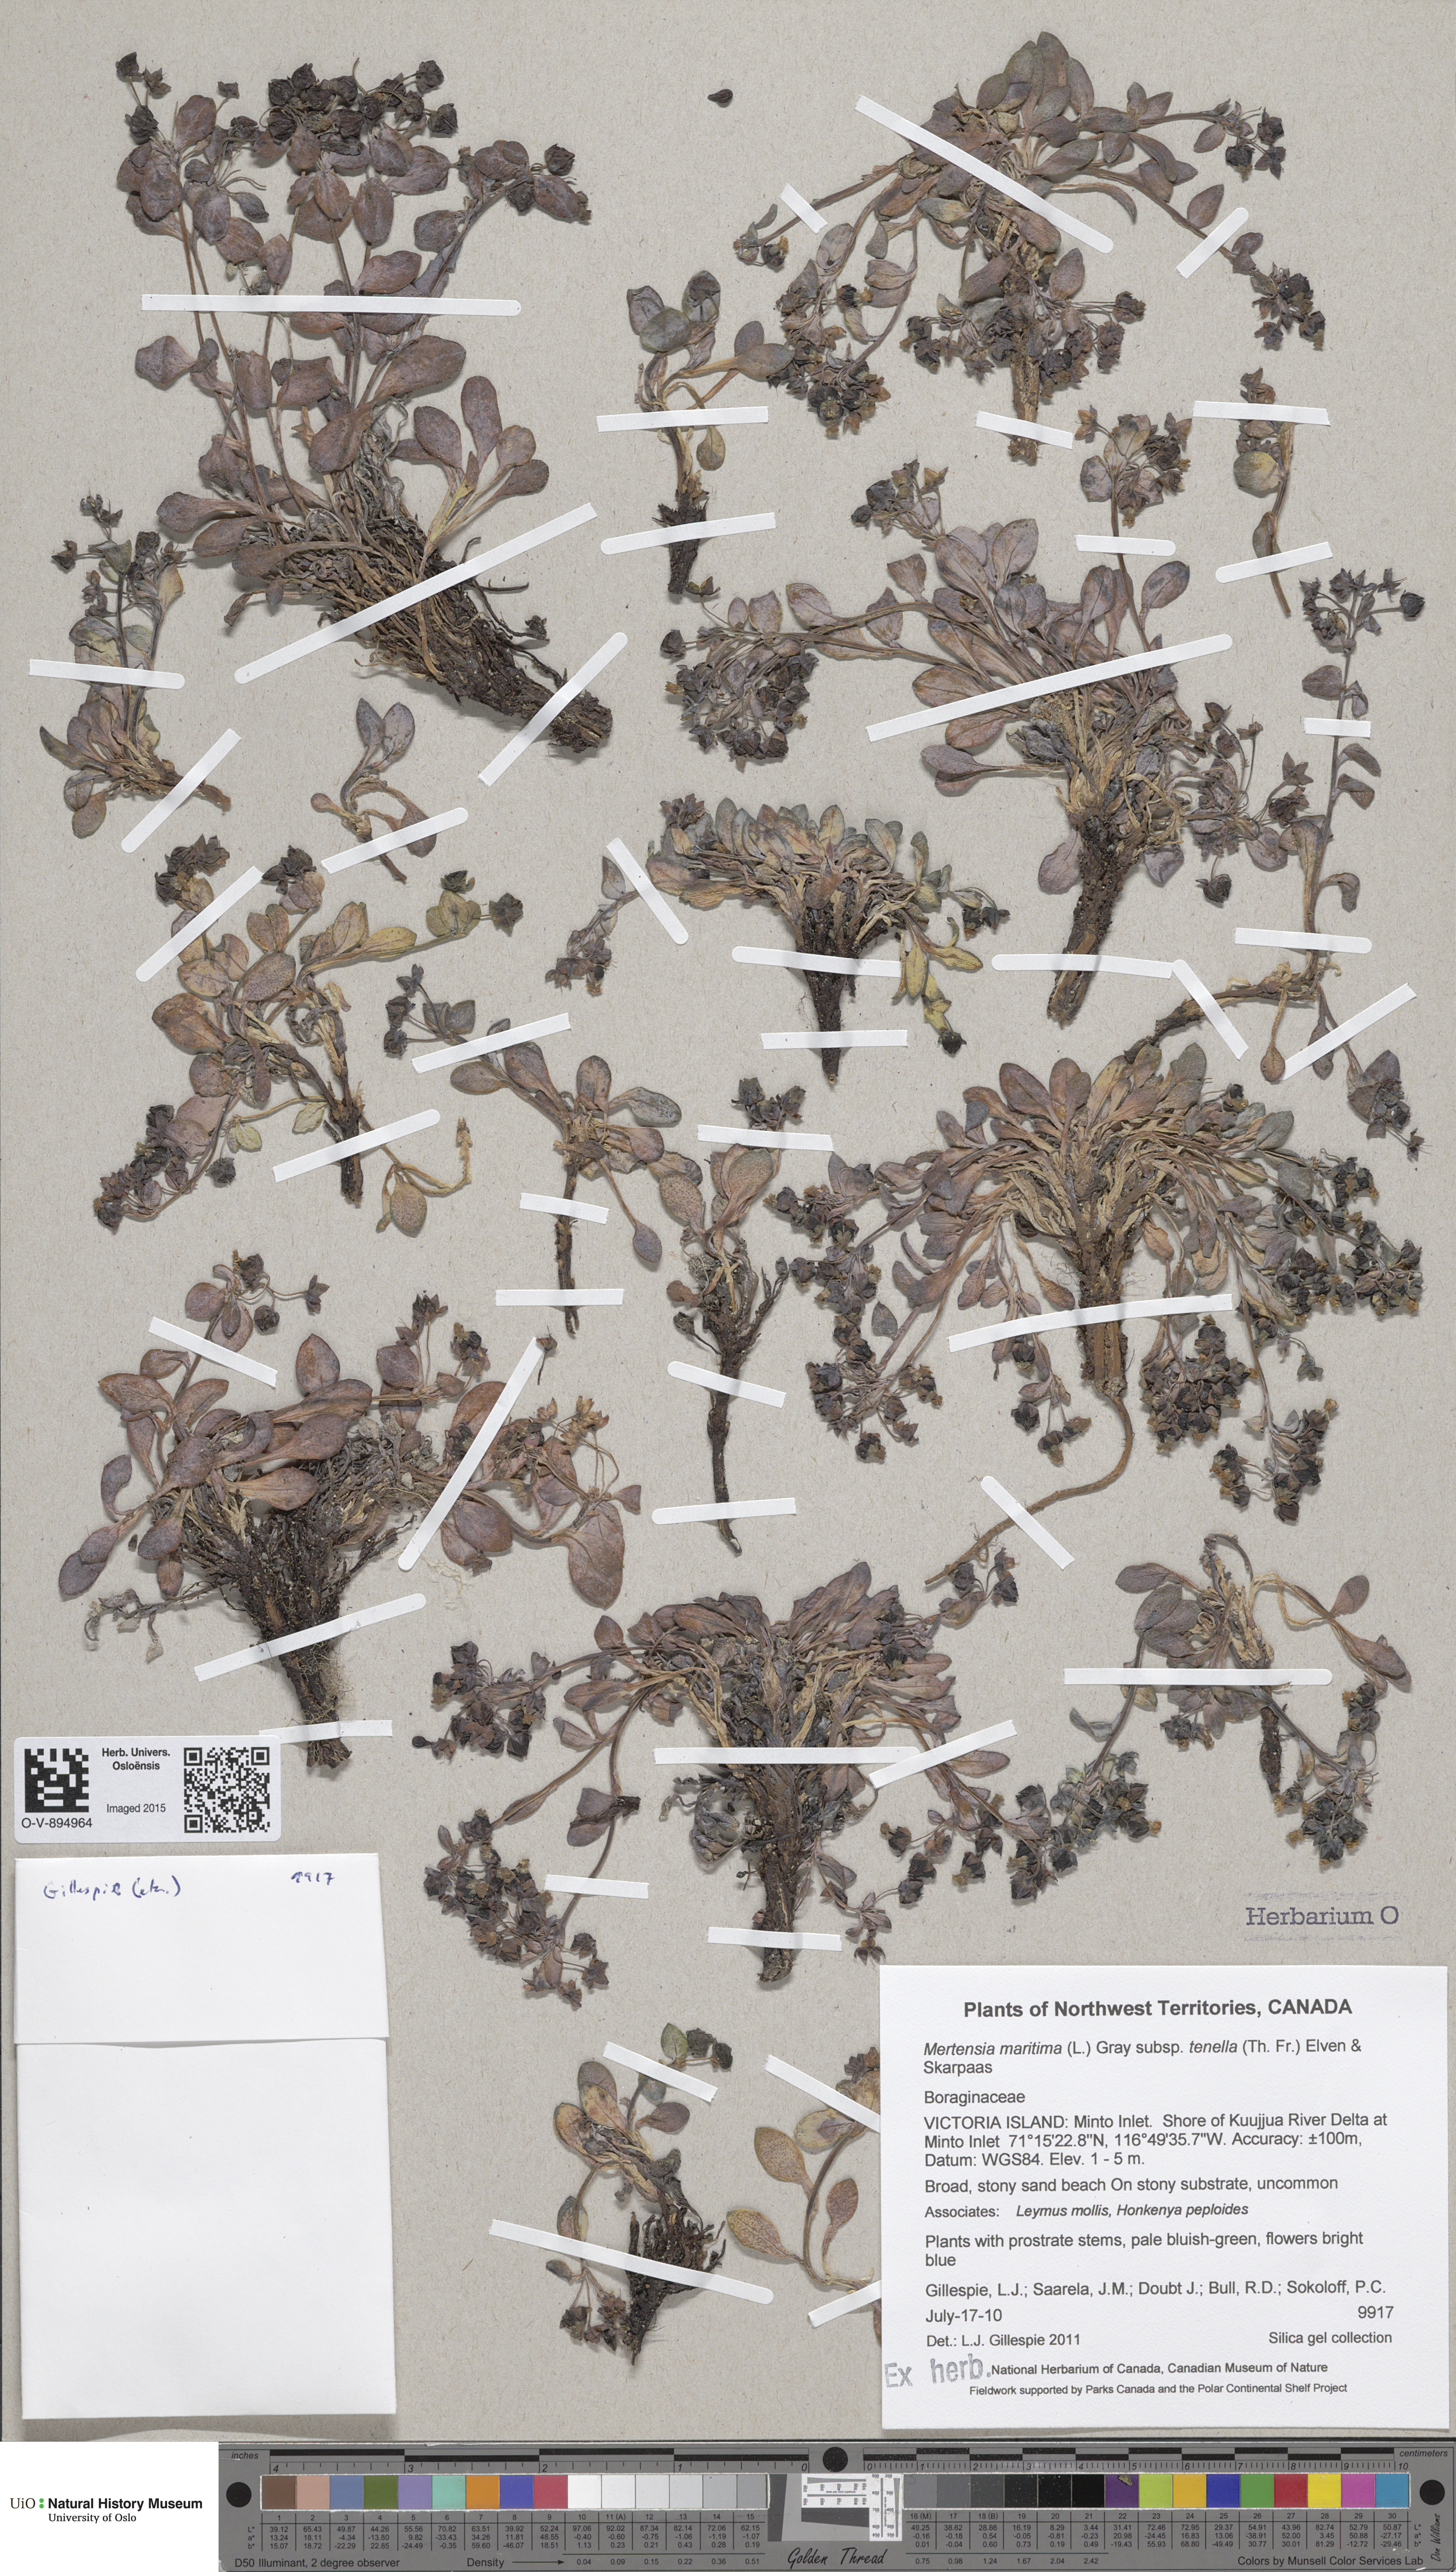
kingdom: Plantae
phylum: Tracheophyta
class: Magnoliopsida
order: Boraginales
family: Boraginaceae
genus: Mertensia
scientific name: Mertensia maritima
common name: Oysterplant
